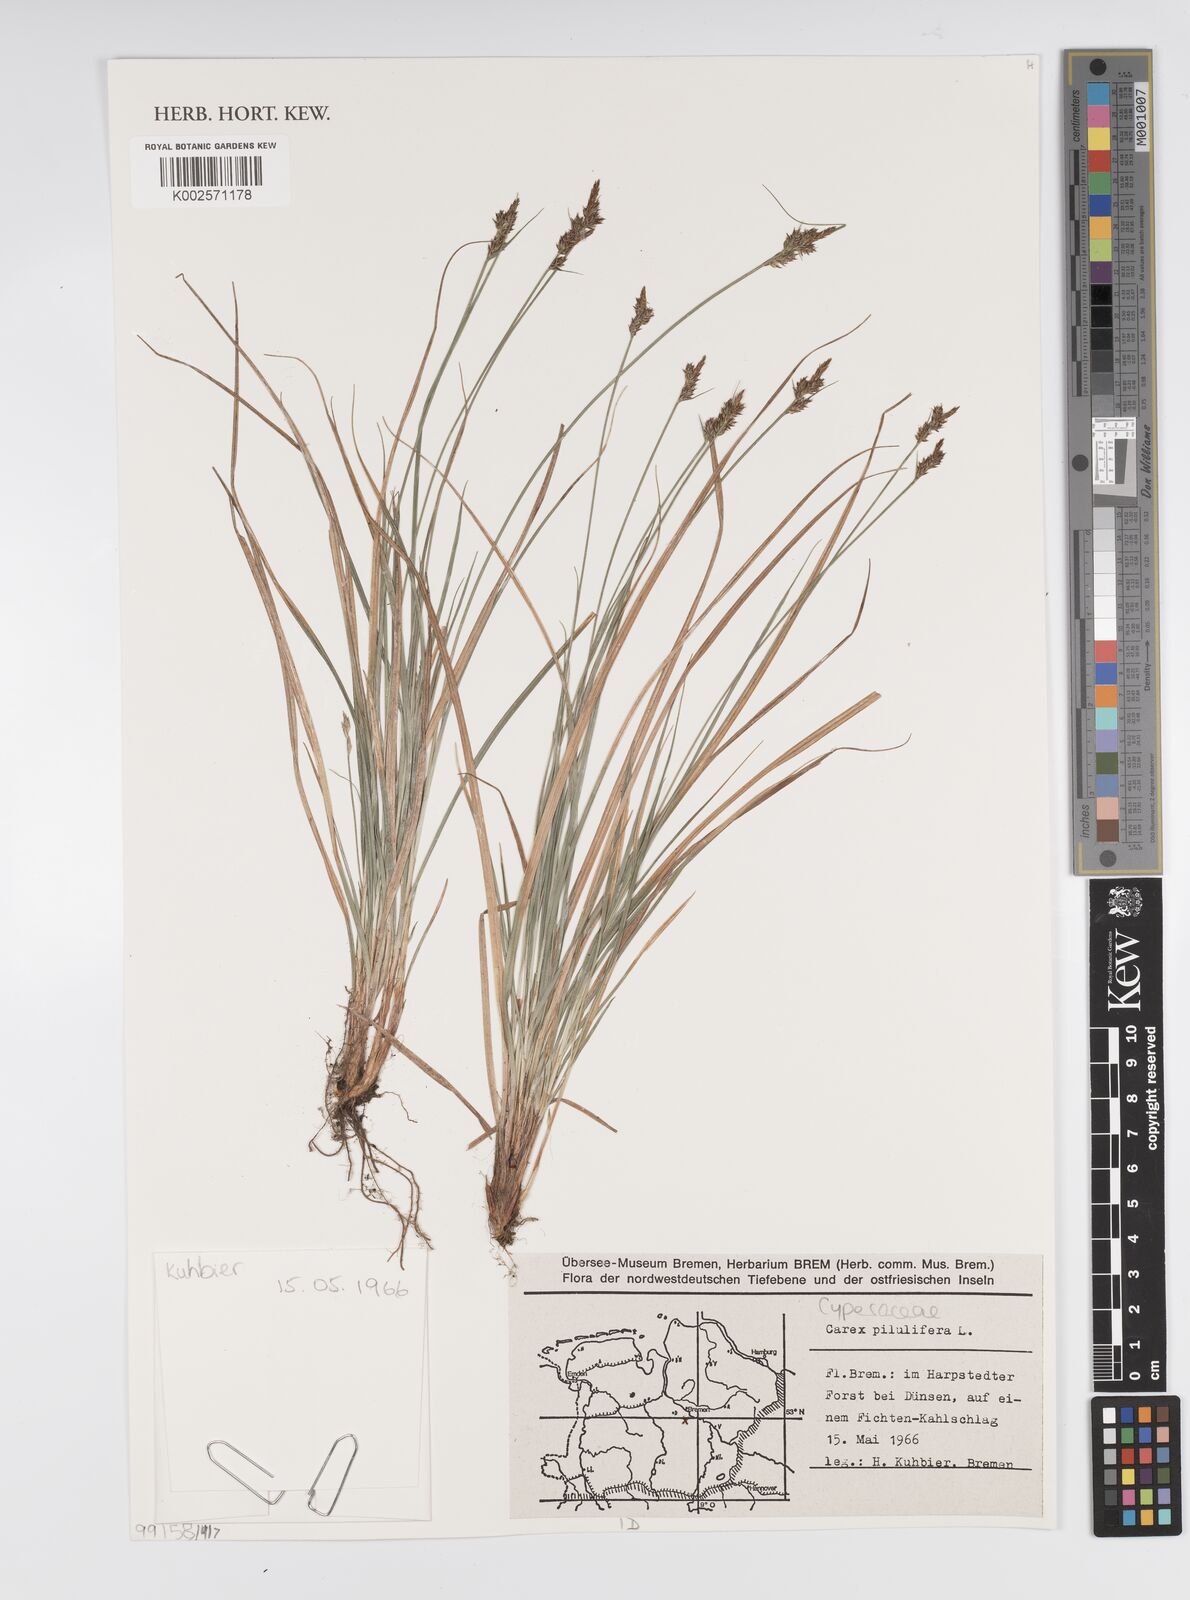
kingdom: Plantae
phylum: Tracheophyta
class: Liliopsida
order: Poales
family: Cyperaceae
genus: Carex
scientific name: Carex pilulifera
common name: Pill sedge
